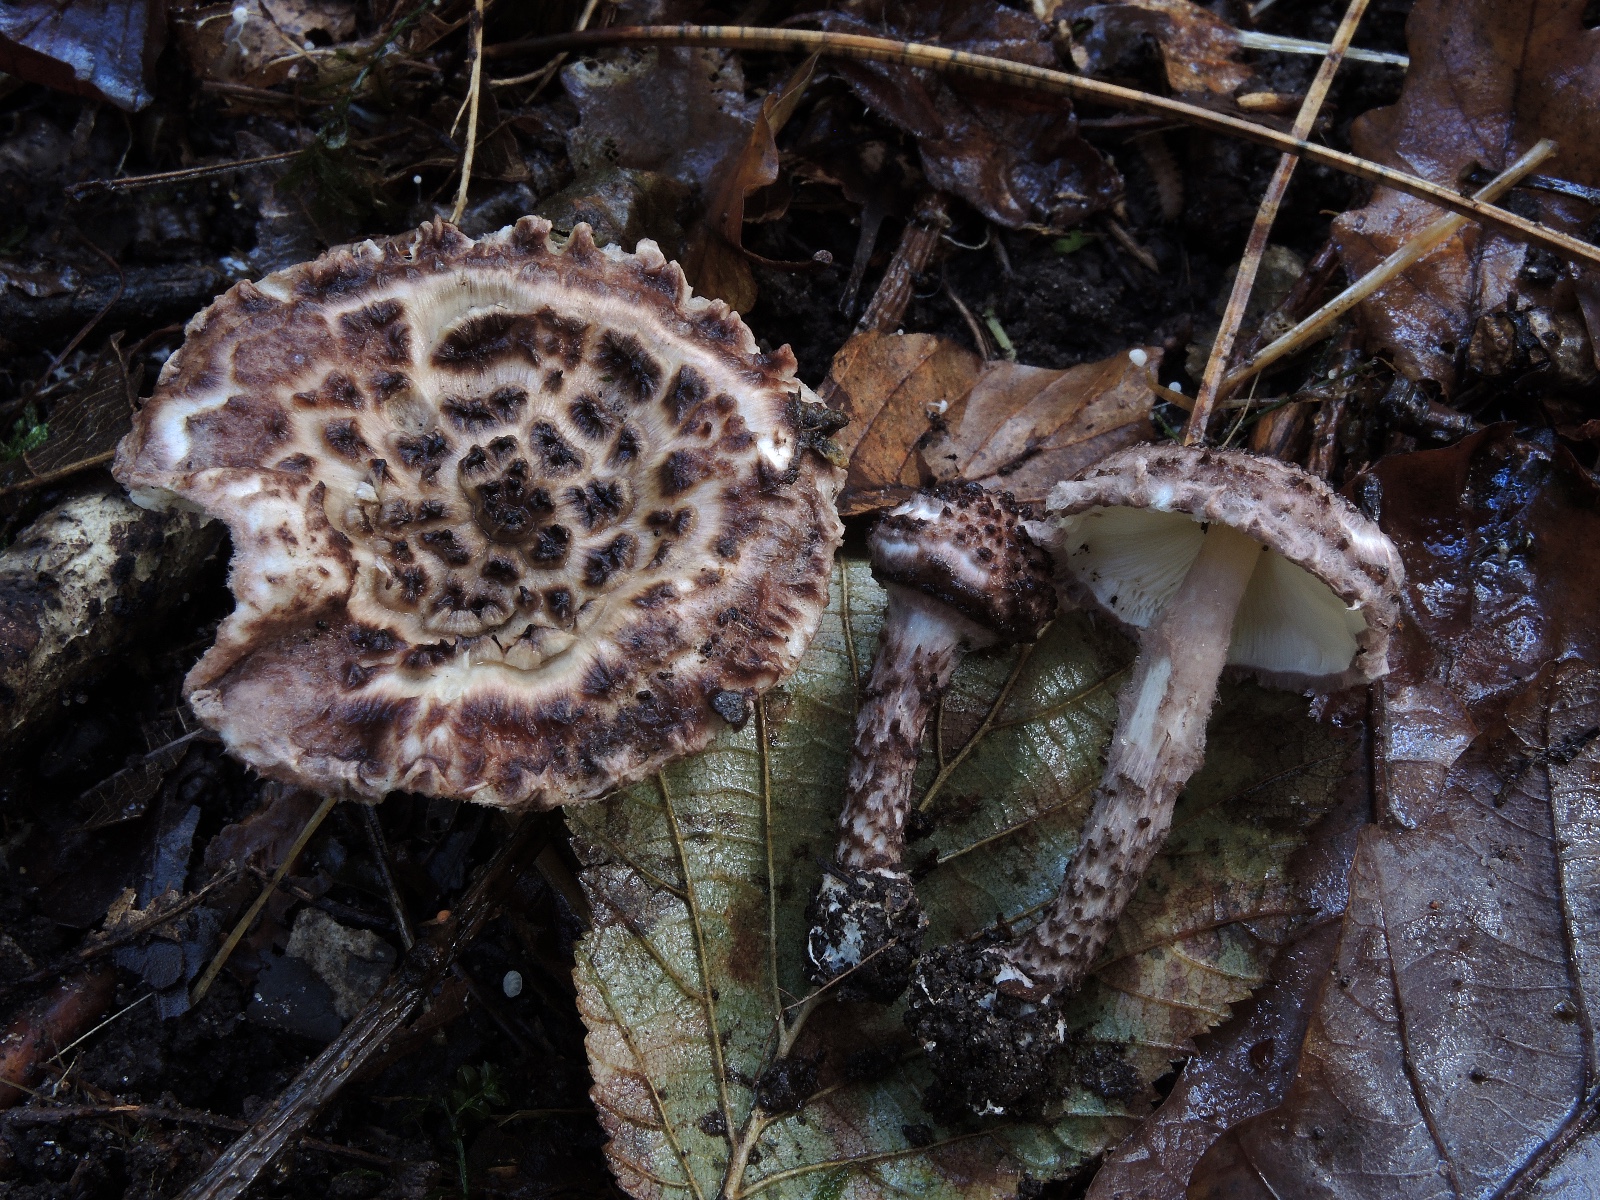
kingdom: Fungi
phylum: Basidiomycota
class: Agaricomycetes
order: Agaricales
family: Agaricaceae
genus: Lepiota
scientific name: Lepiota fuscovinacea
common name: vinrød parasolhat
